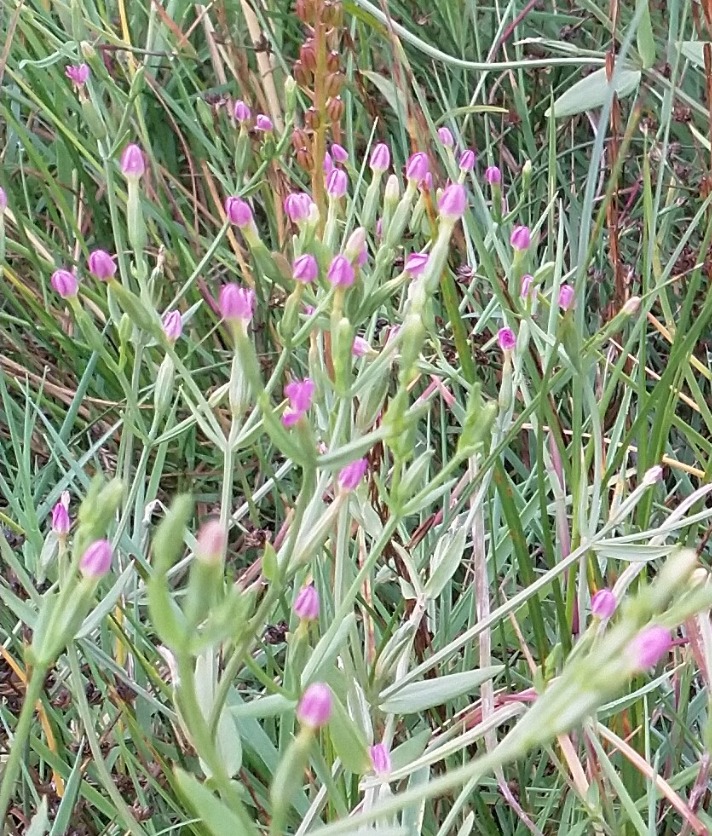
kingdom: Plantae
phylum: Tracheophyta
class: Magnoliopsida
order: Gentianales
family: Gentianaceae
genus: Centaurium
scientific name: Centaurium pulchellum
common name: Liden tusindgylden
